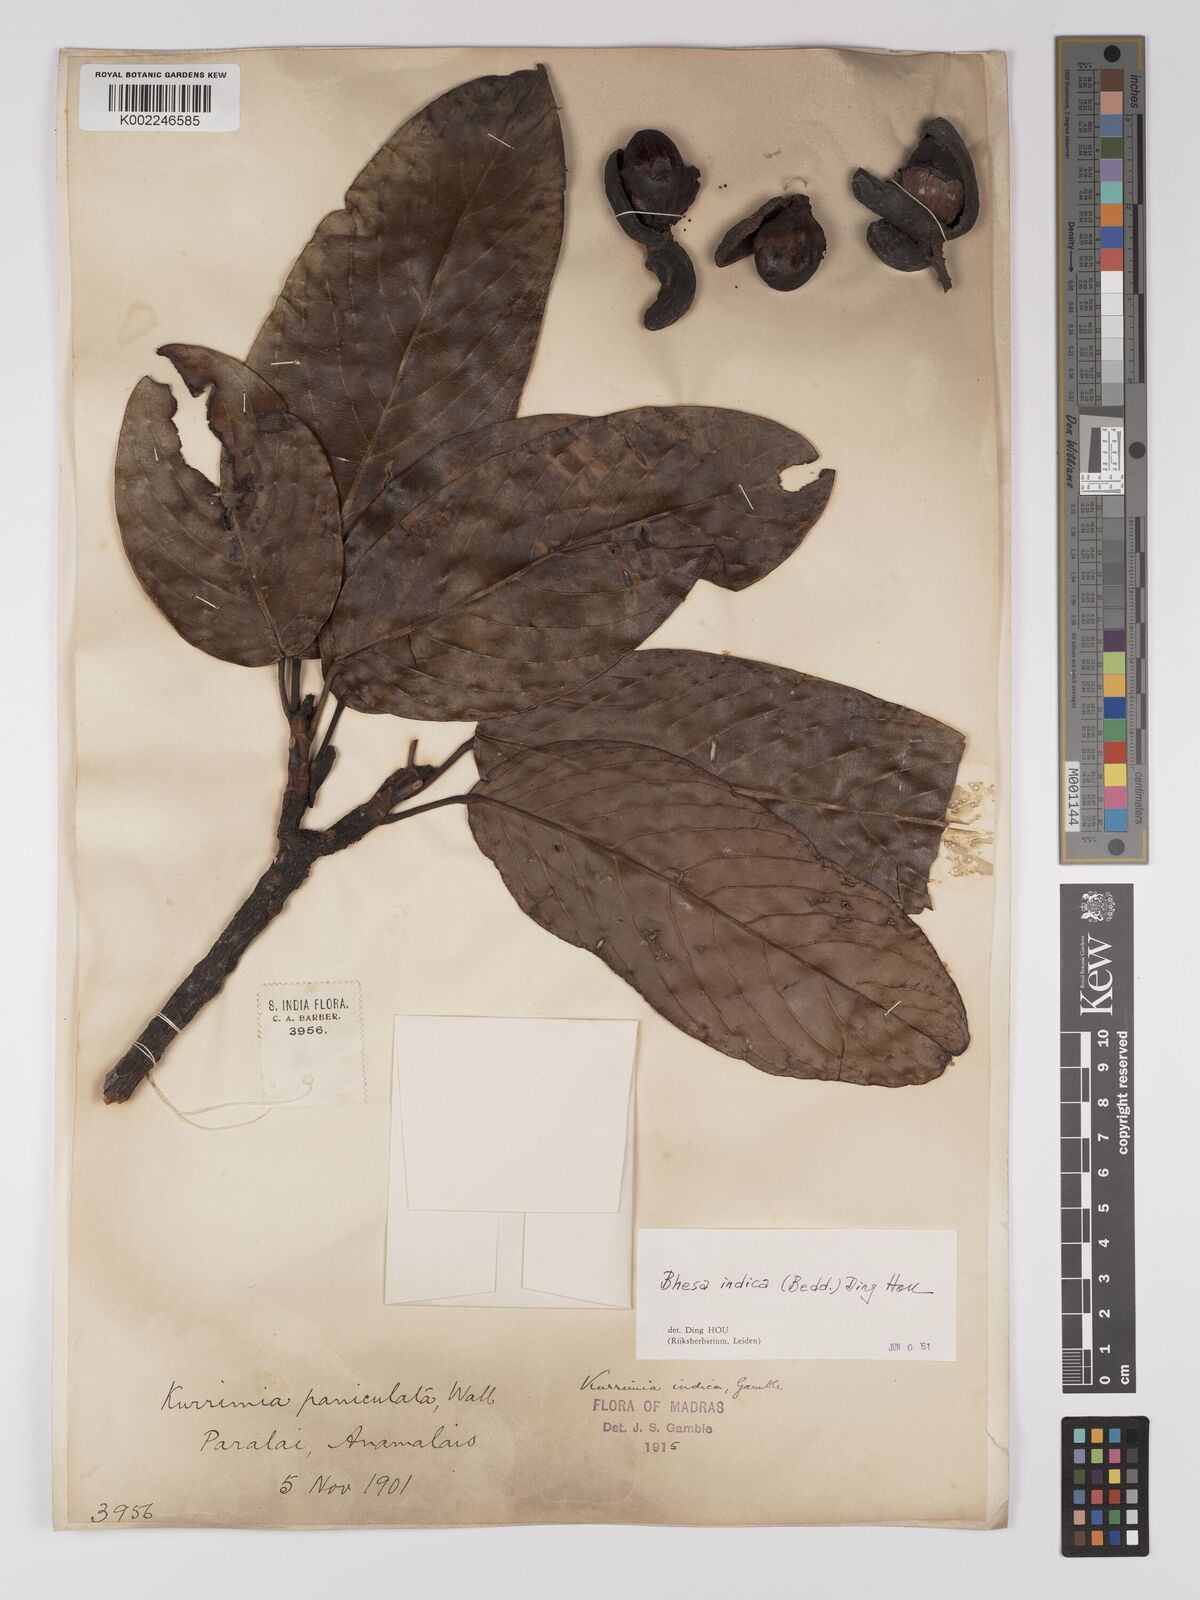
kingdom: Plantae
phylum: Tracheophyta
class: Magnoliopsida
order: Malpighiales
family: Centroplacaceae
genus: Bhesa
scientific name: Bhesa indica
